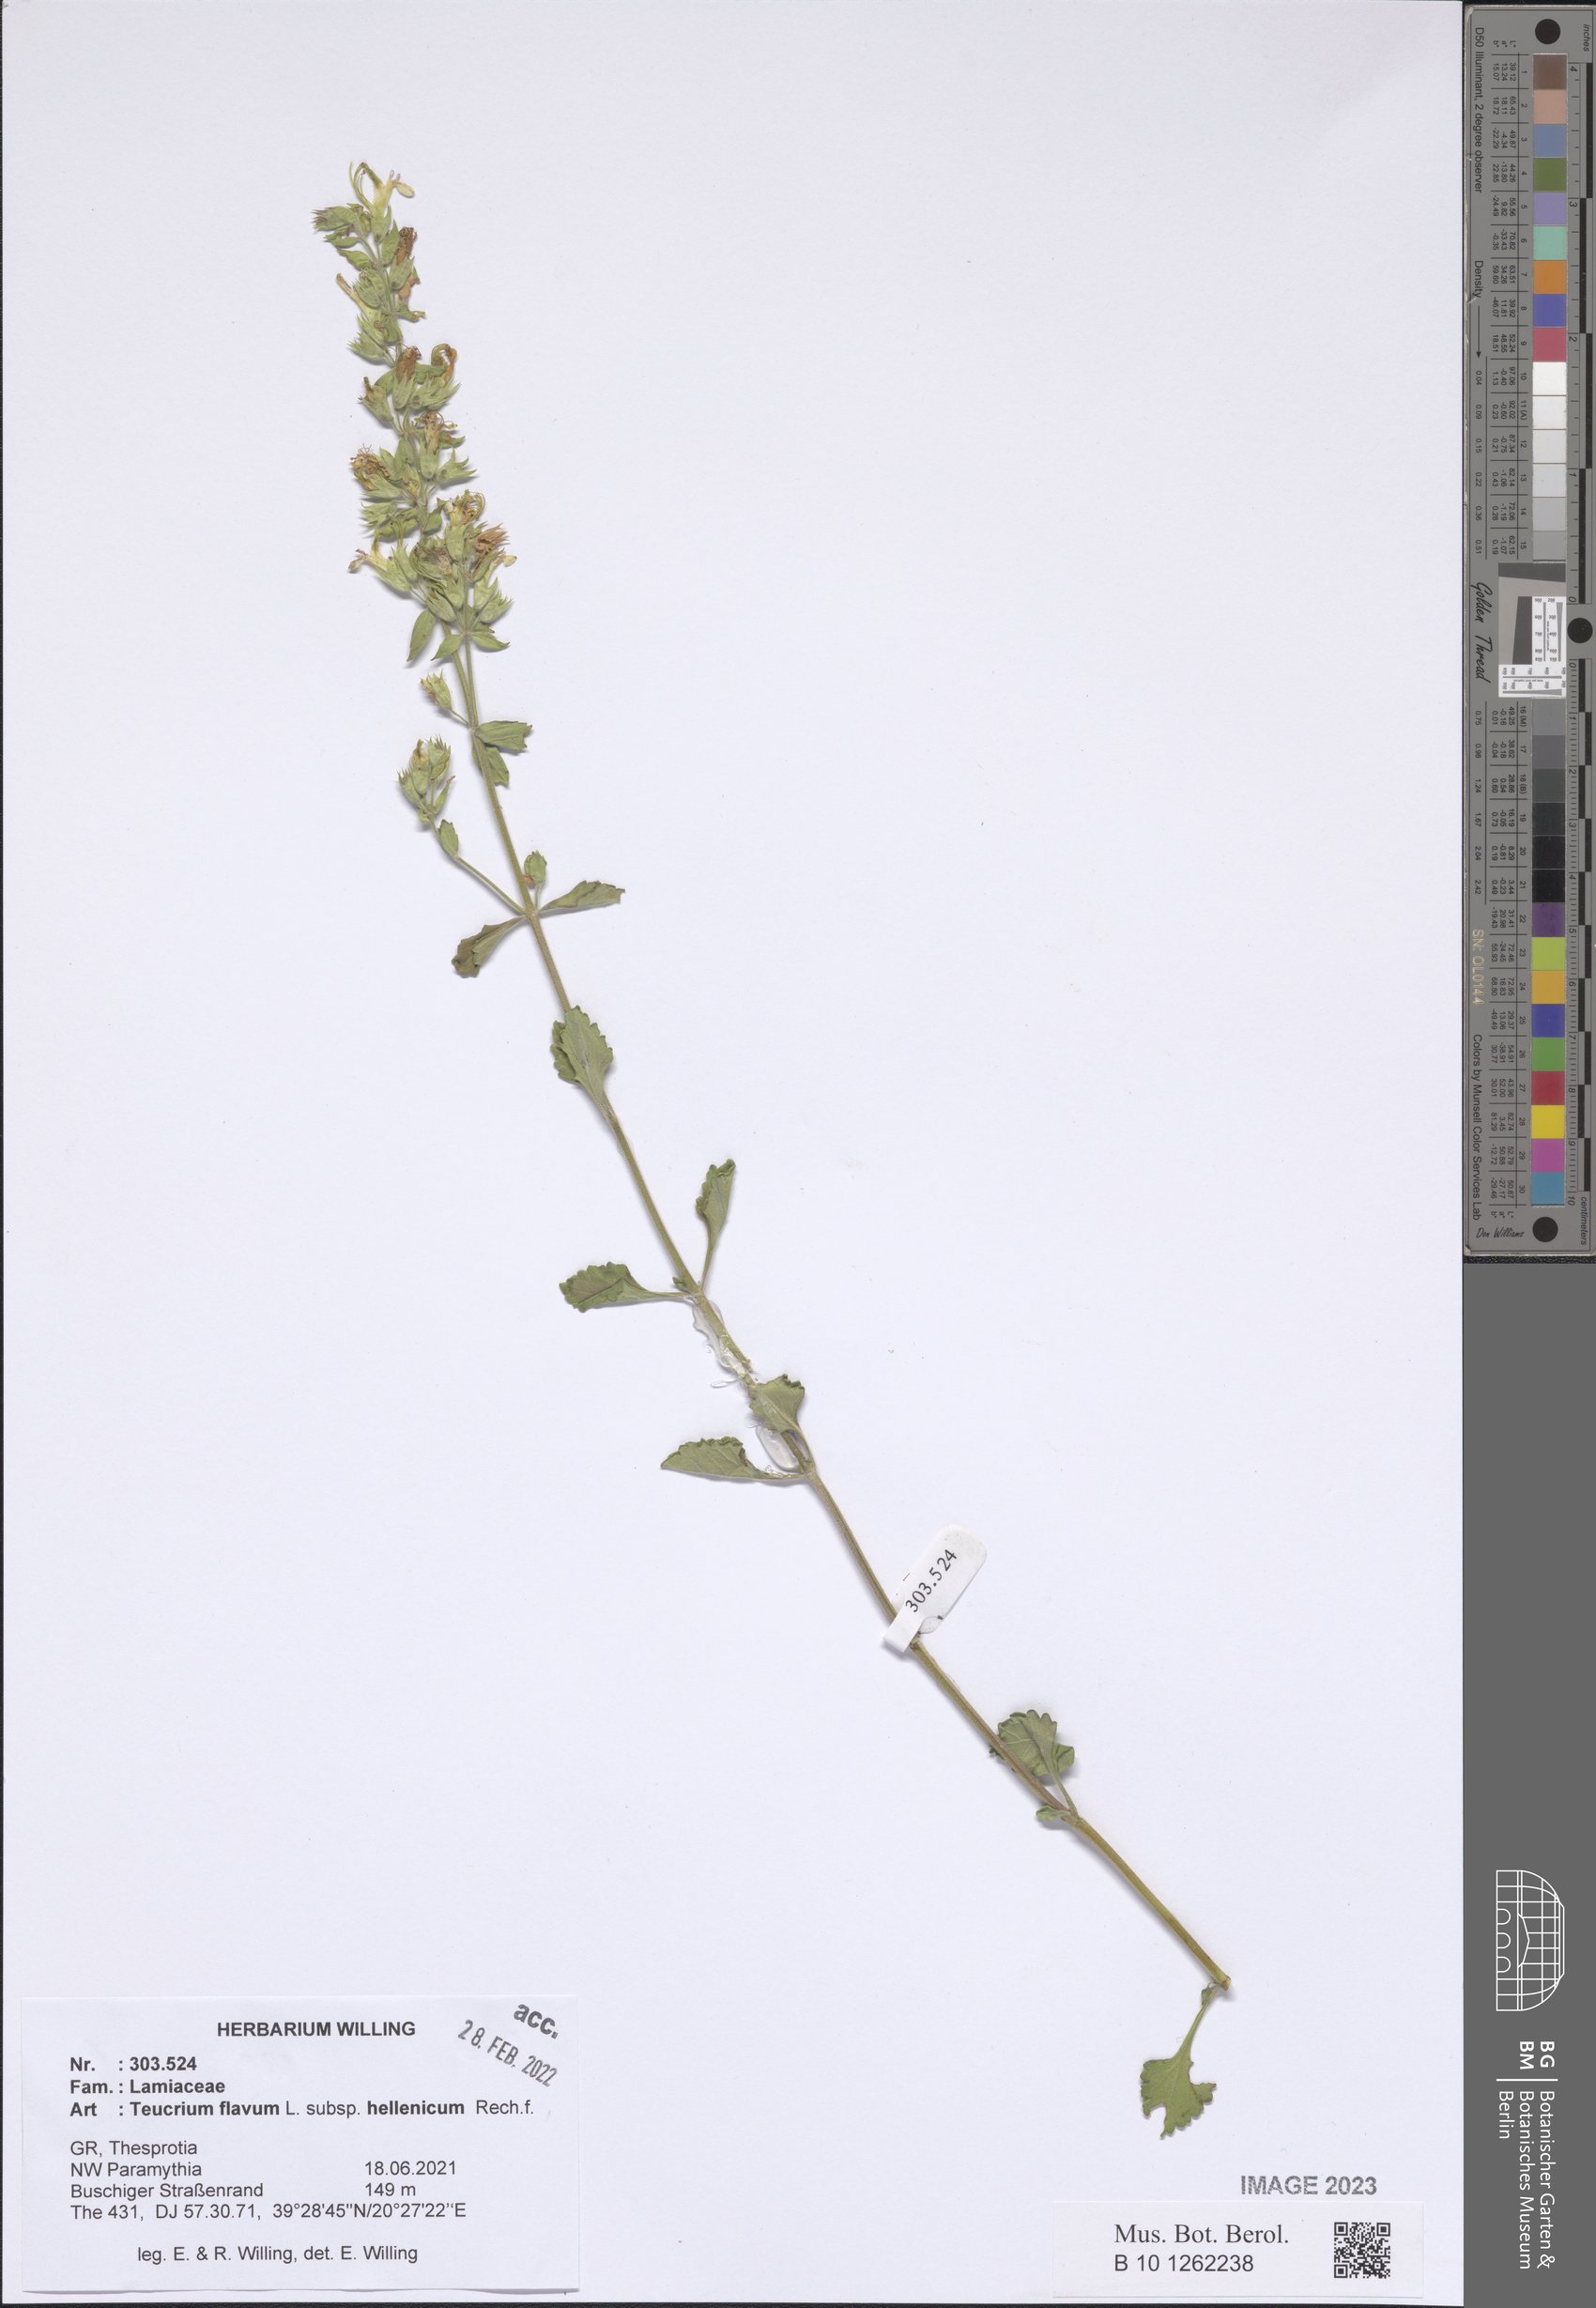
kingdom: Plantae
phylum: Tracheophyta
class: Magnoliopsida
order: Lamiales
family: Lamiaceae
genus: Teucrium
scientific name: Teucrium flavum
